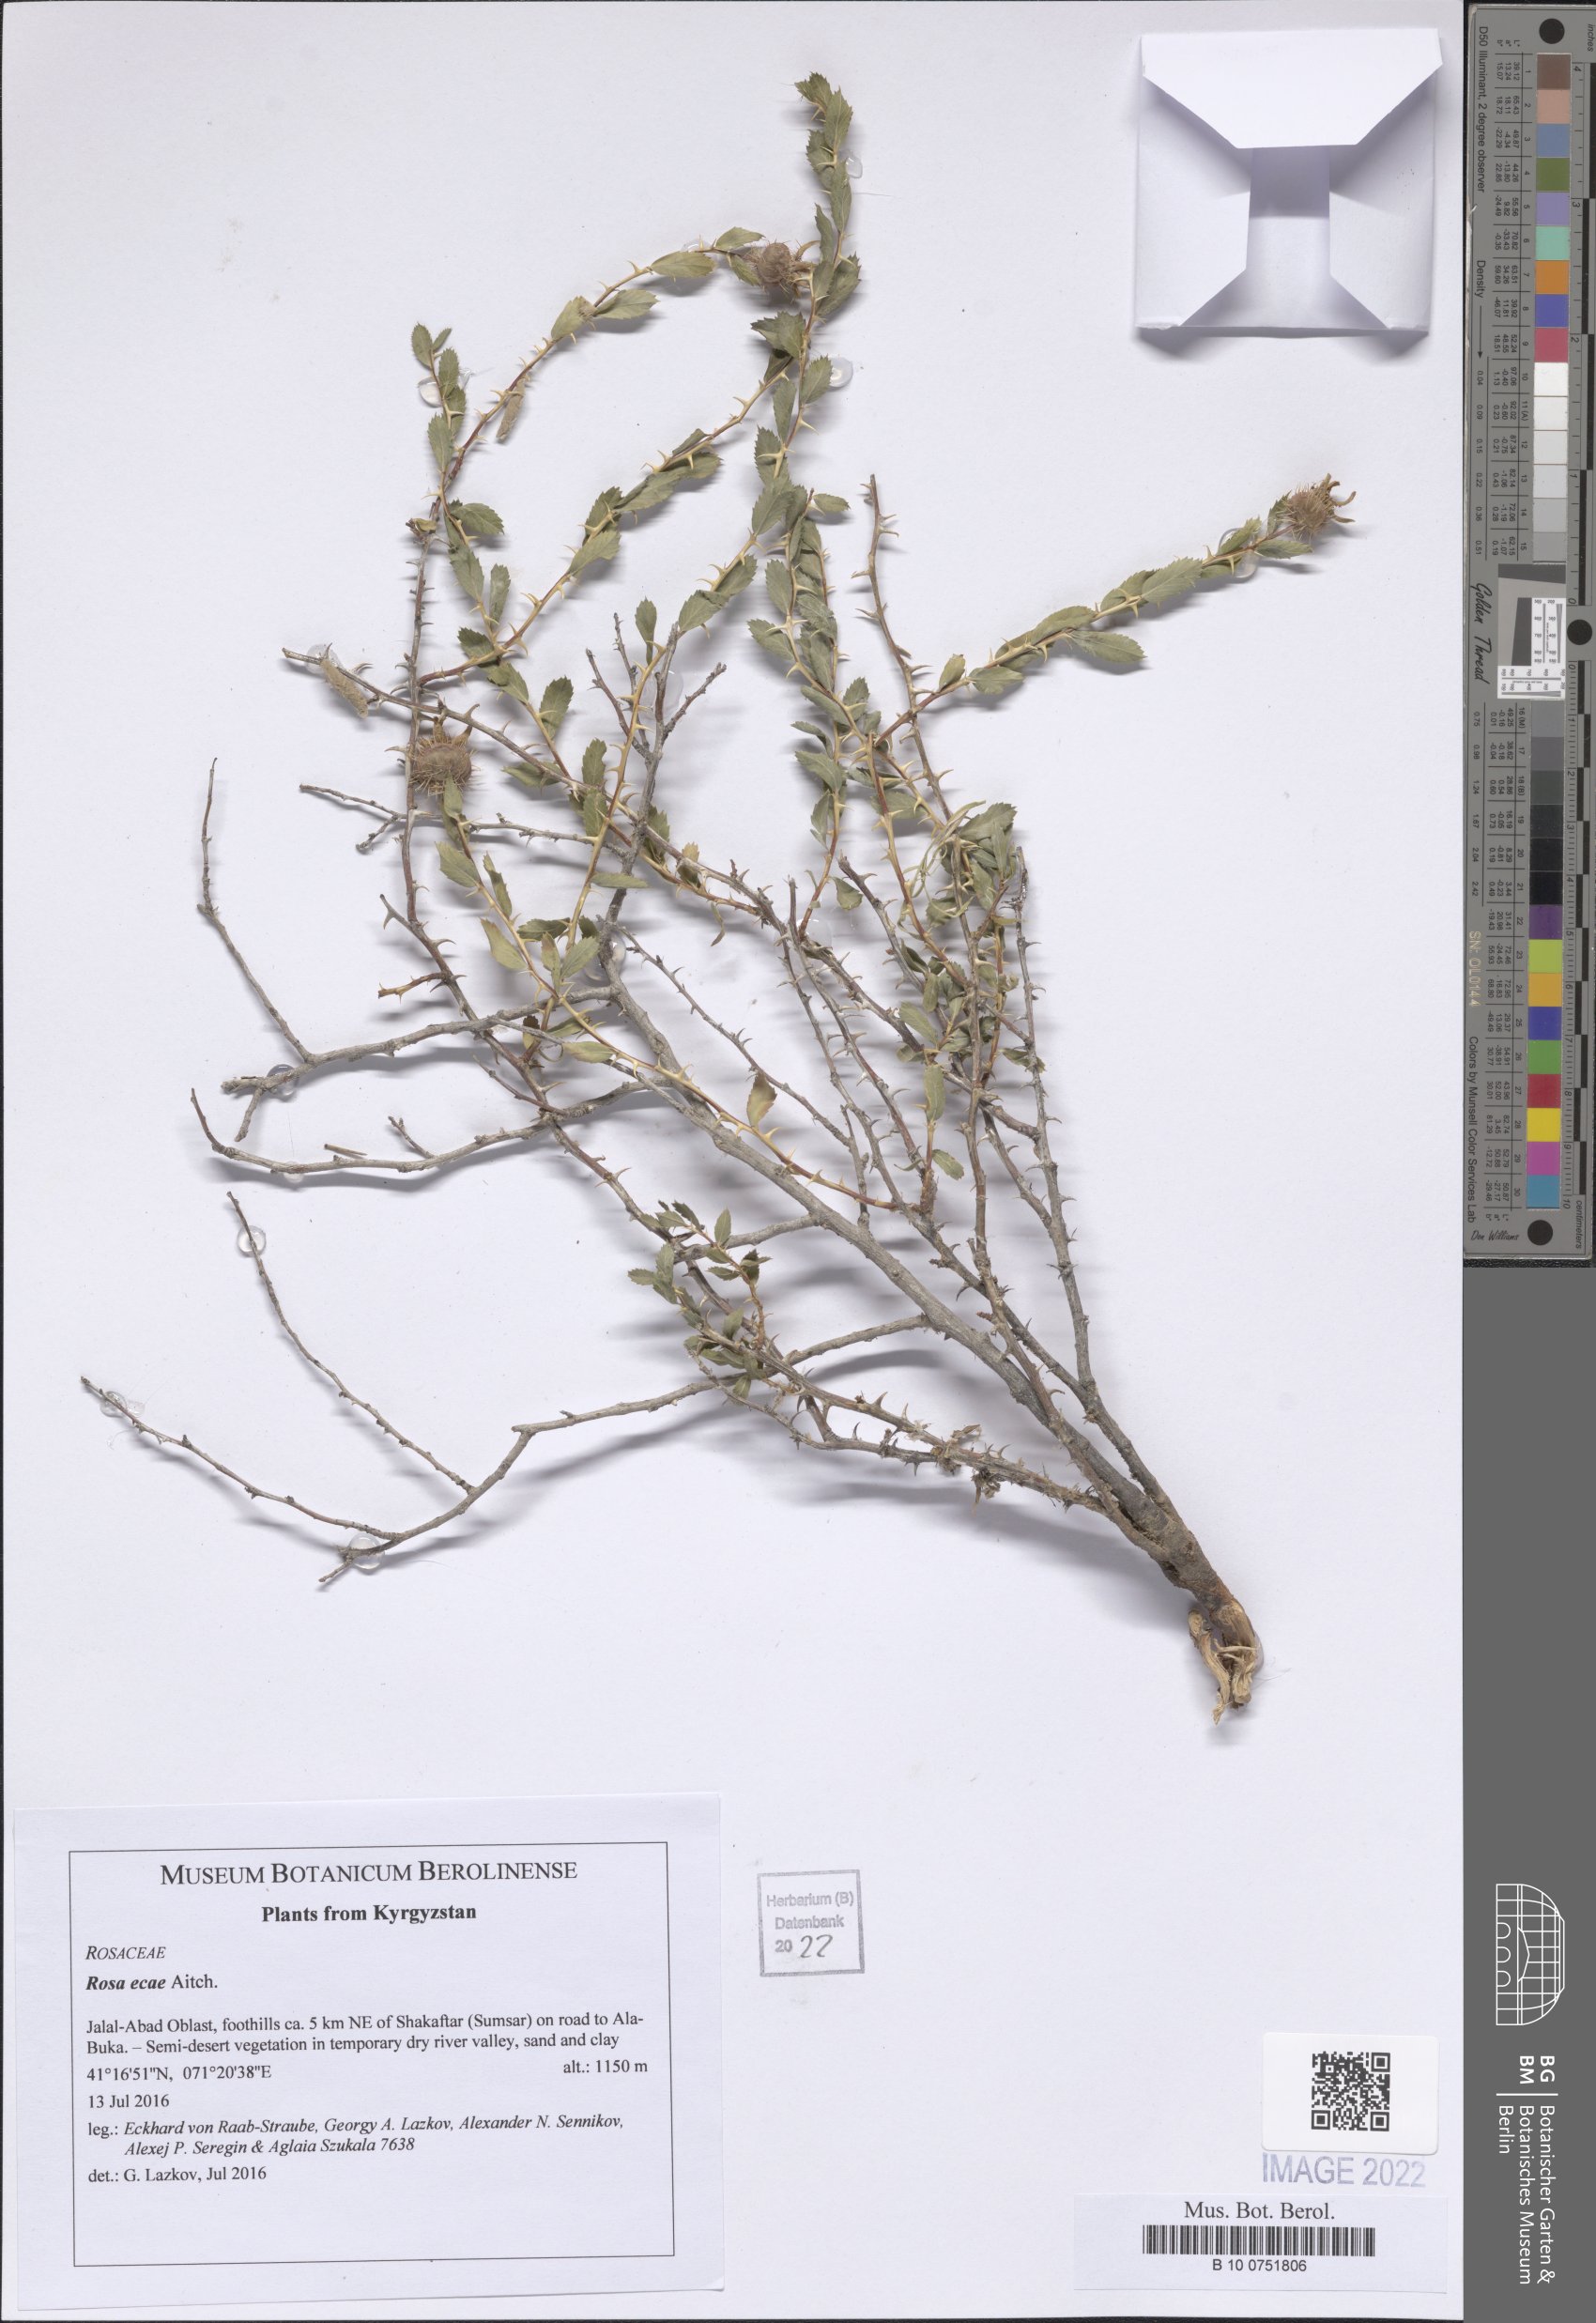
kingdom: Plantae
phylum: Tracheophyta
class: Magnoliopsida
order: Rosales
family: Rosaceae
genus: Rosa
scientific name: Rosa ecae
